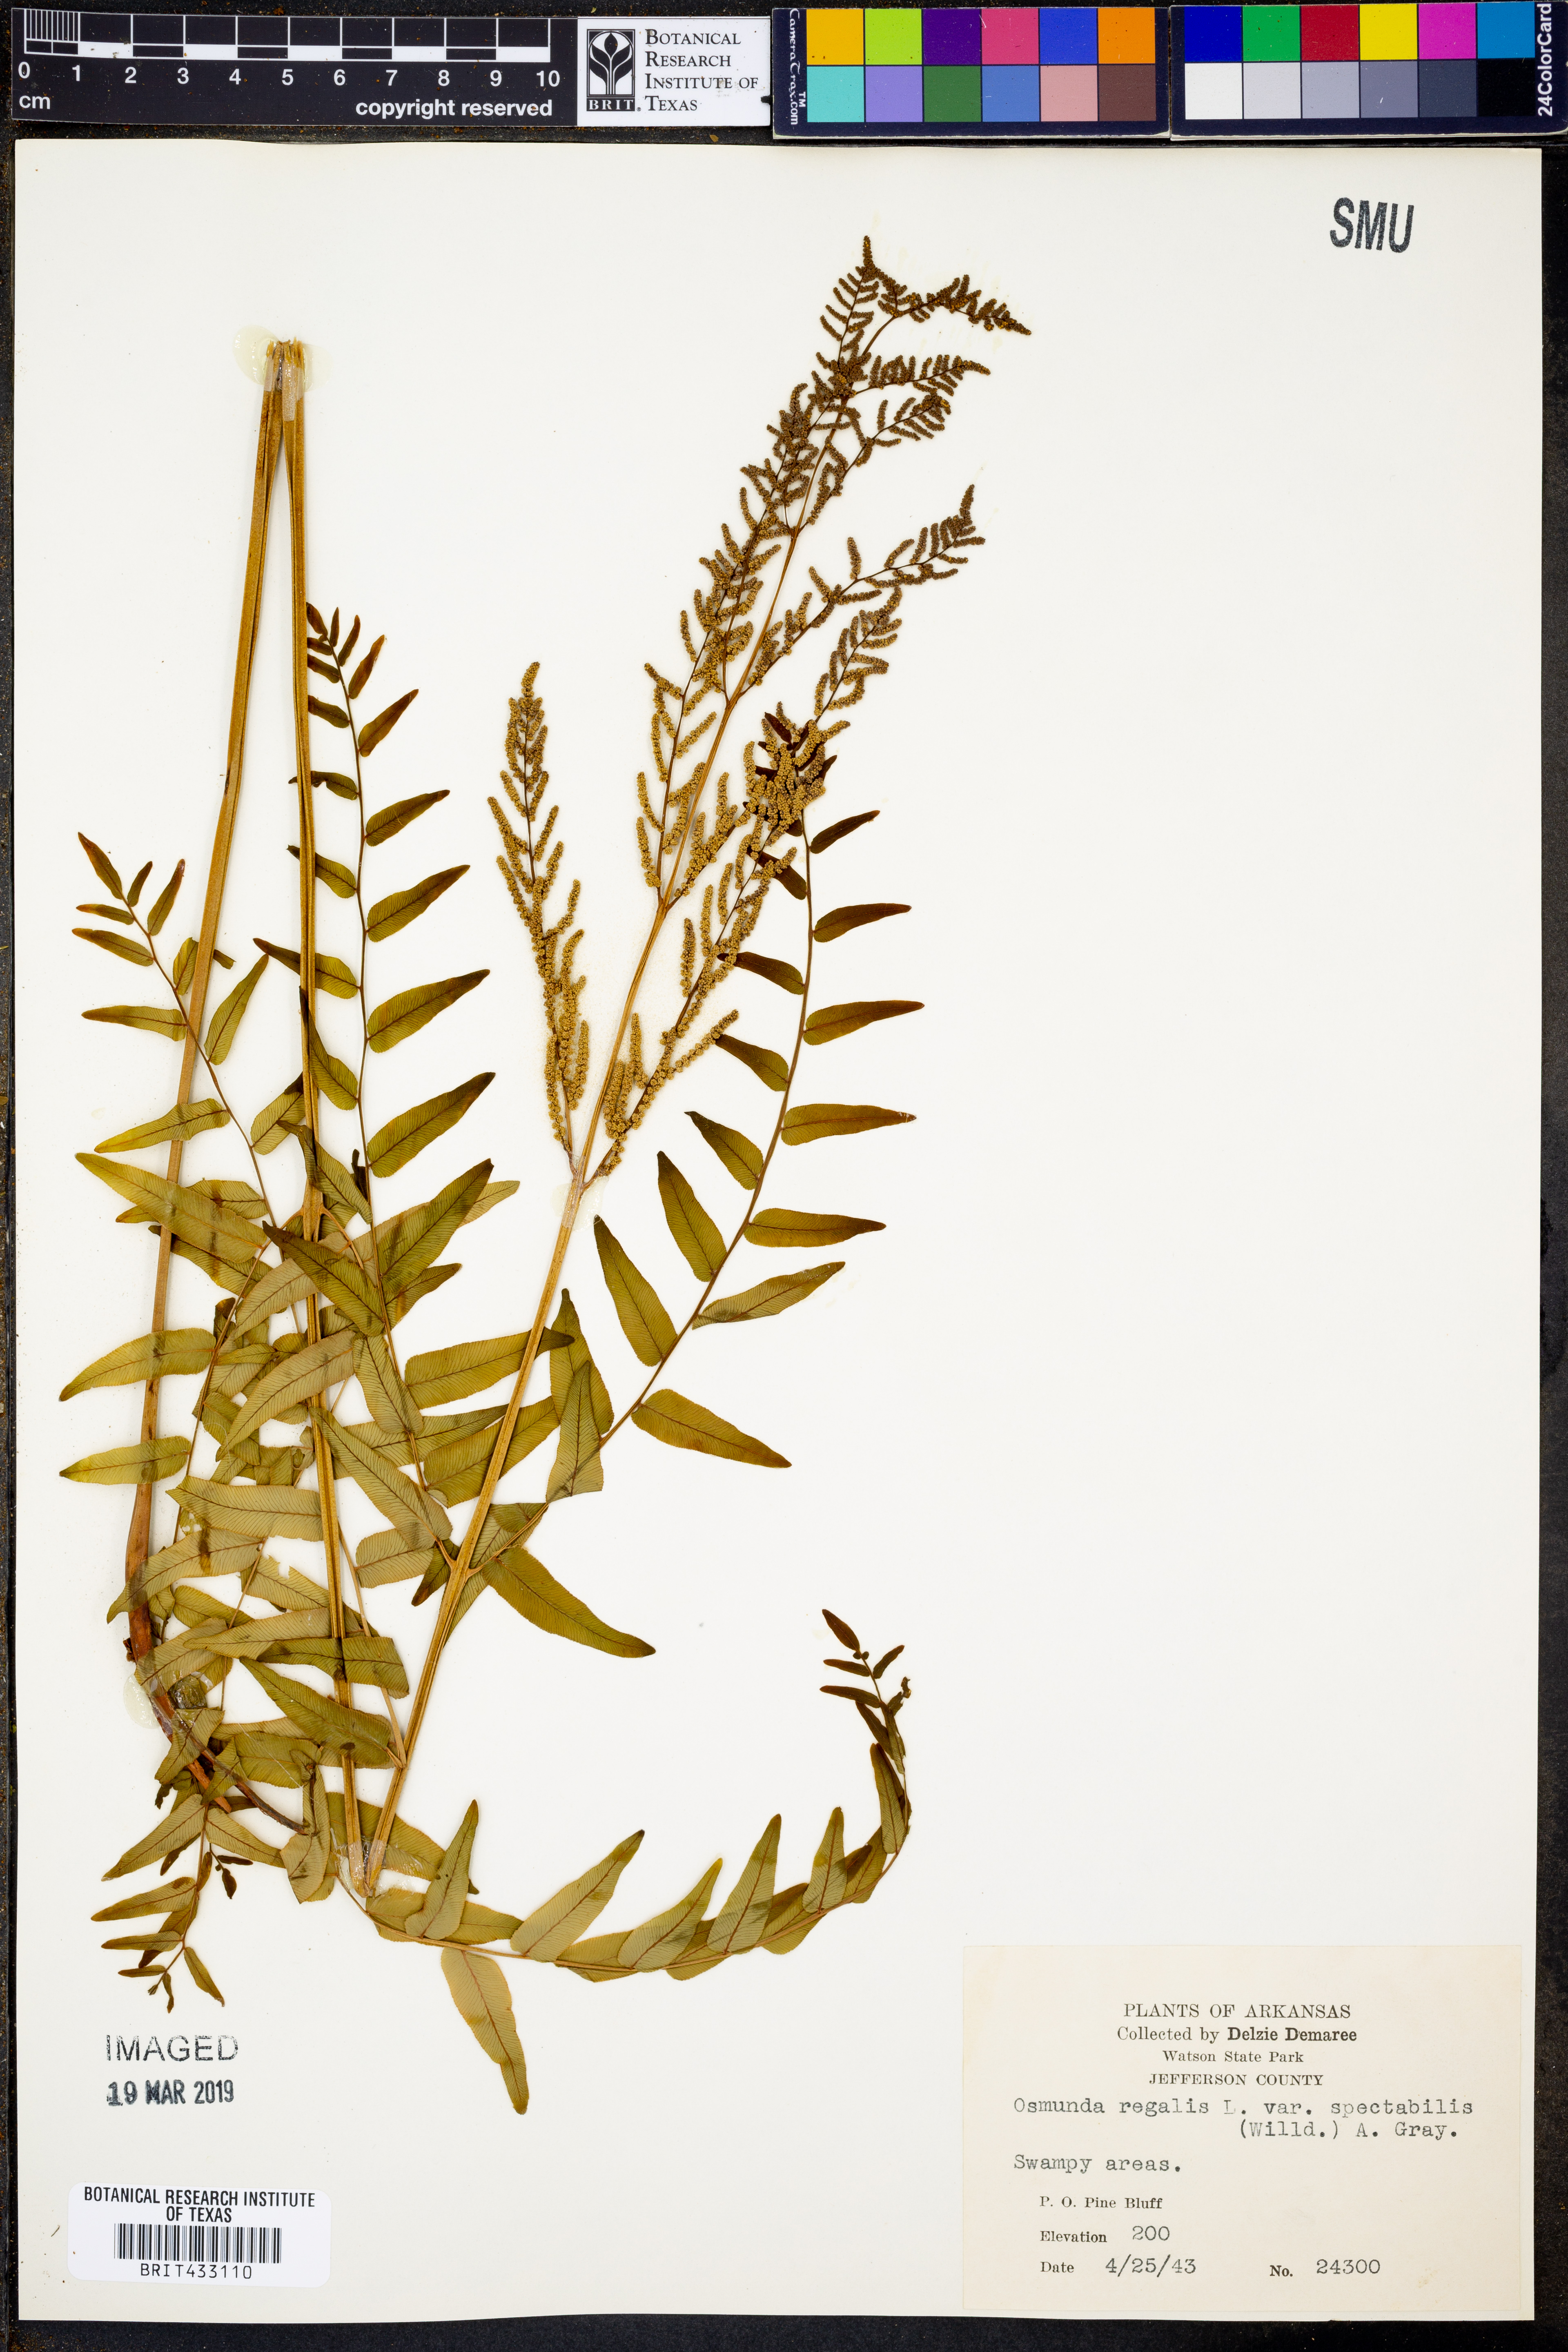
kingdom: Plantae
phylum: Tracheophyta
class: Polypodiopsida
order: Osmundales
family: Osmundaceae
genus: Osmunda
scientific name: Osmunda spectabilis
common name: American royal fern
